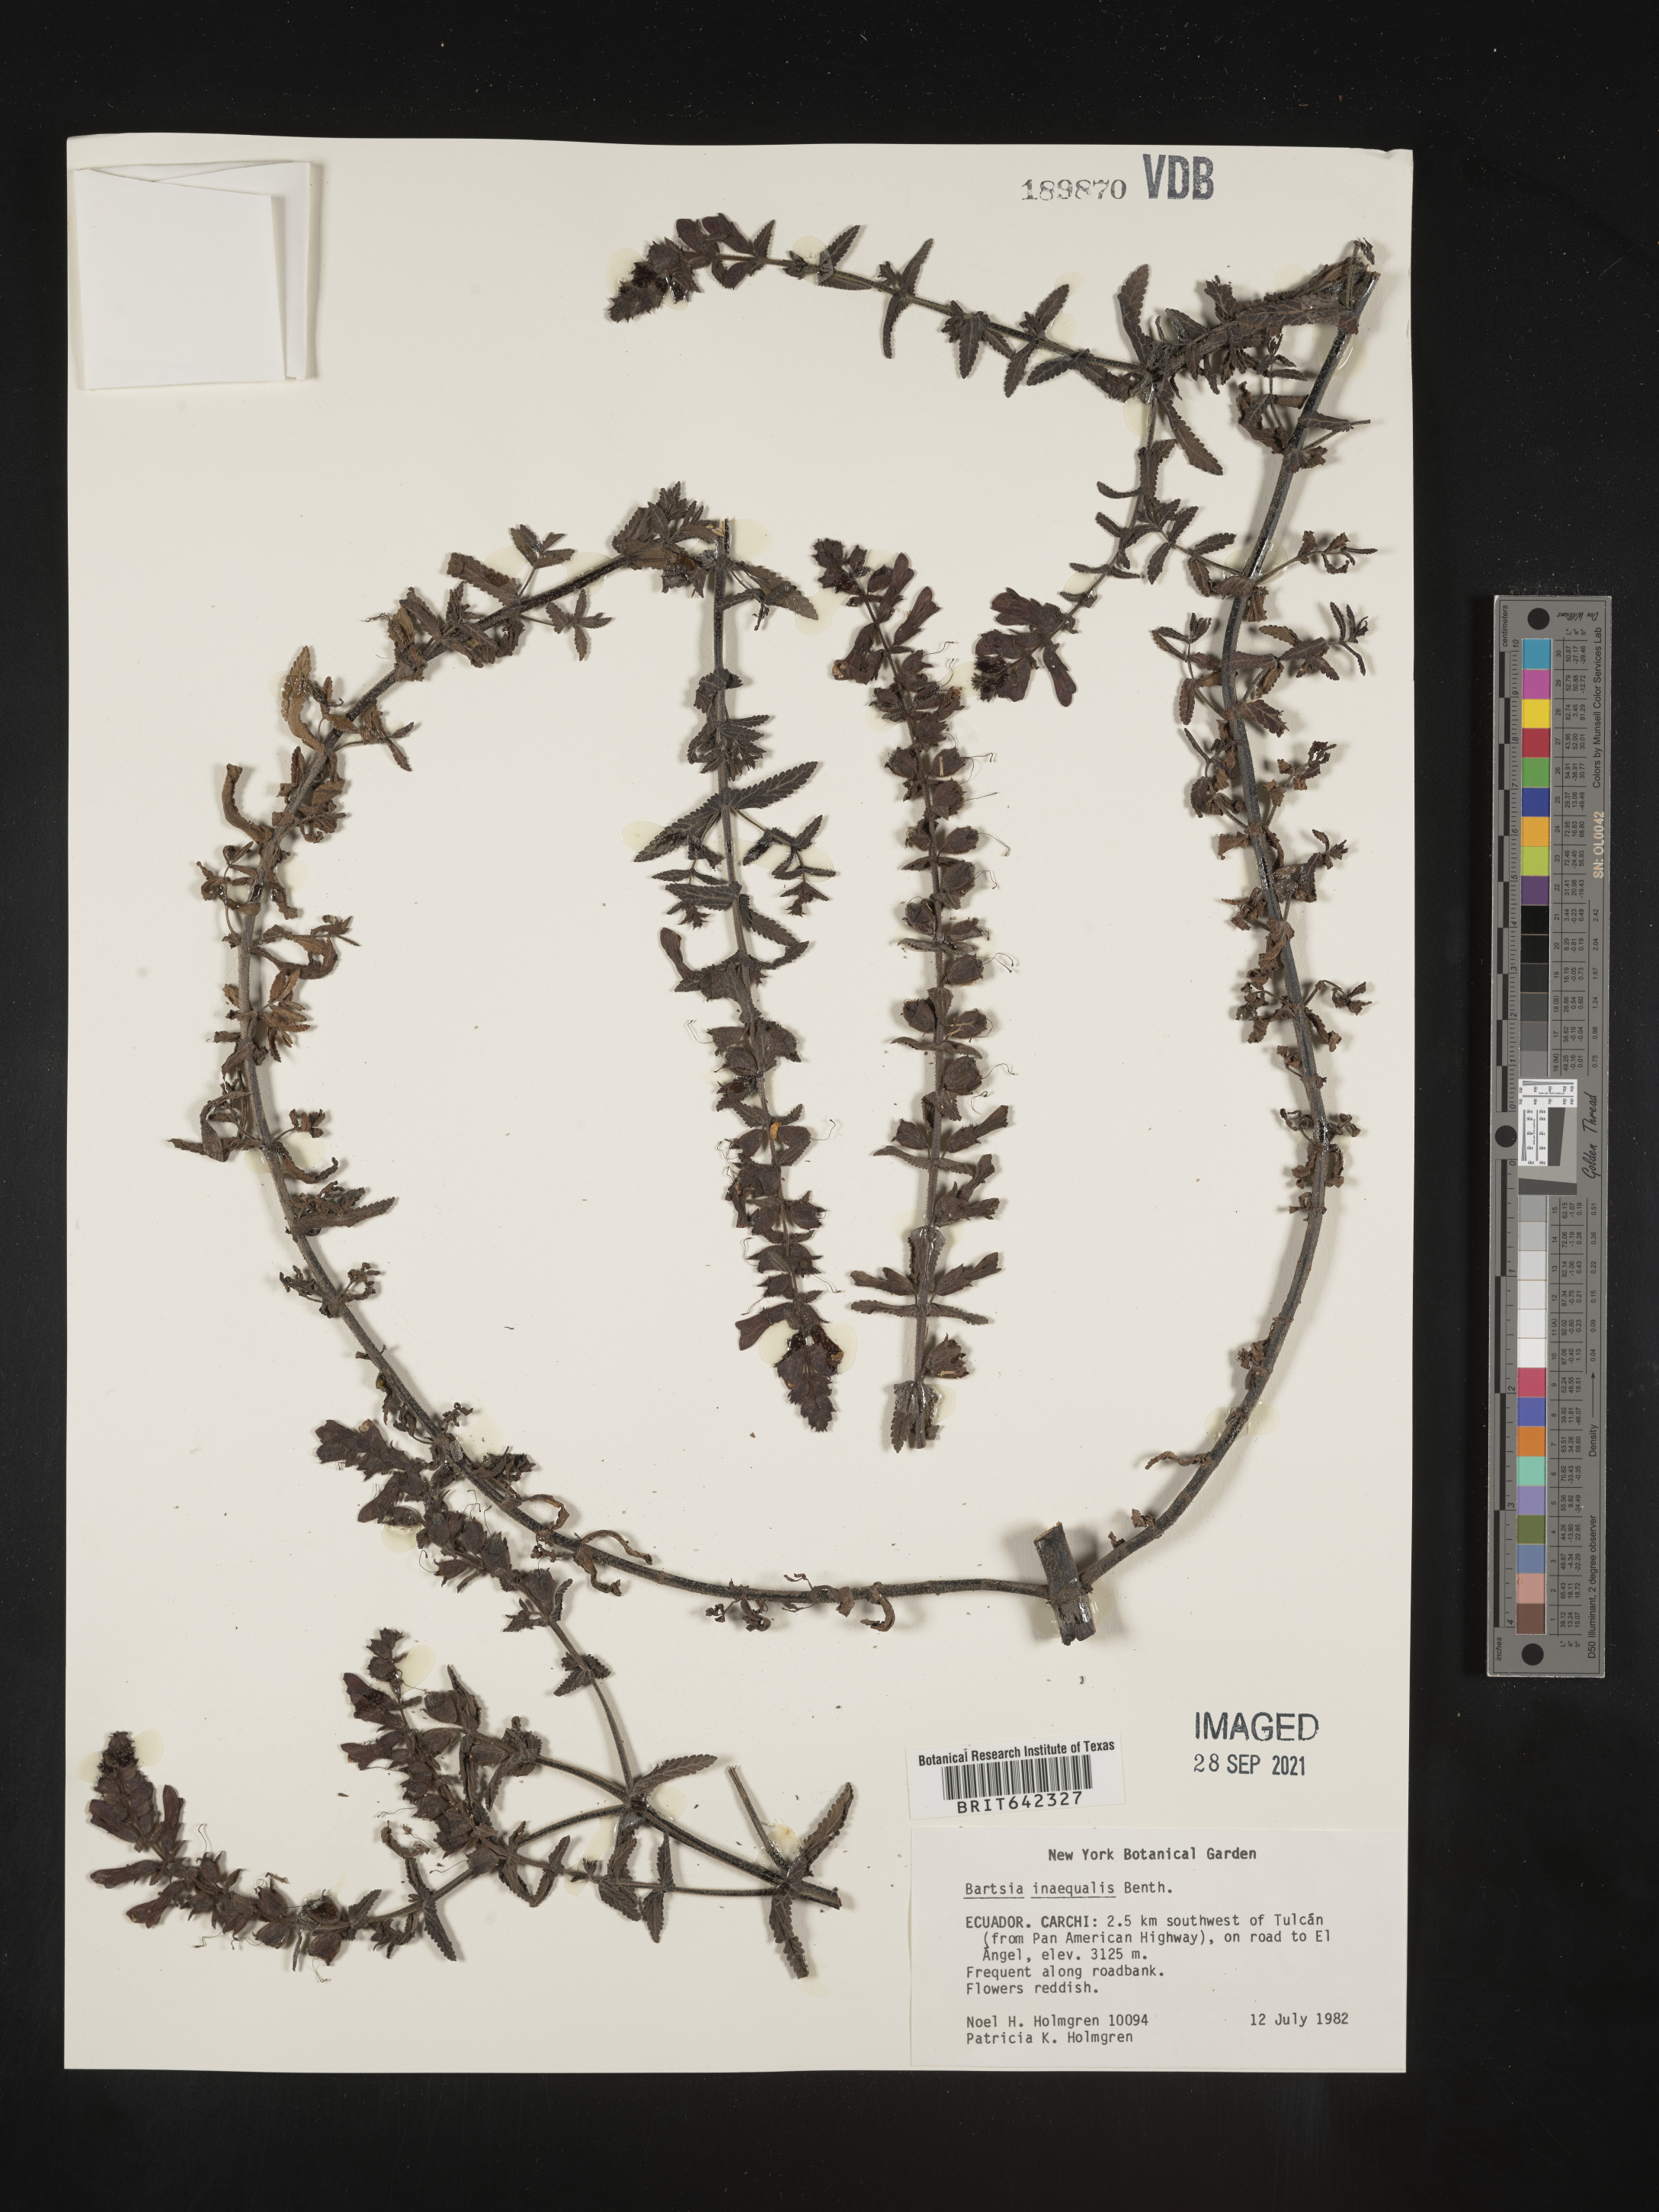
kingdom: Plantae
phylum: Tracheophyta
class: Magnoliopsida
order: Lamiales
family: Orobanchaceae
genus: Bartsia
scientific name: Bartsia
